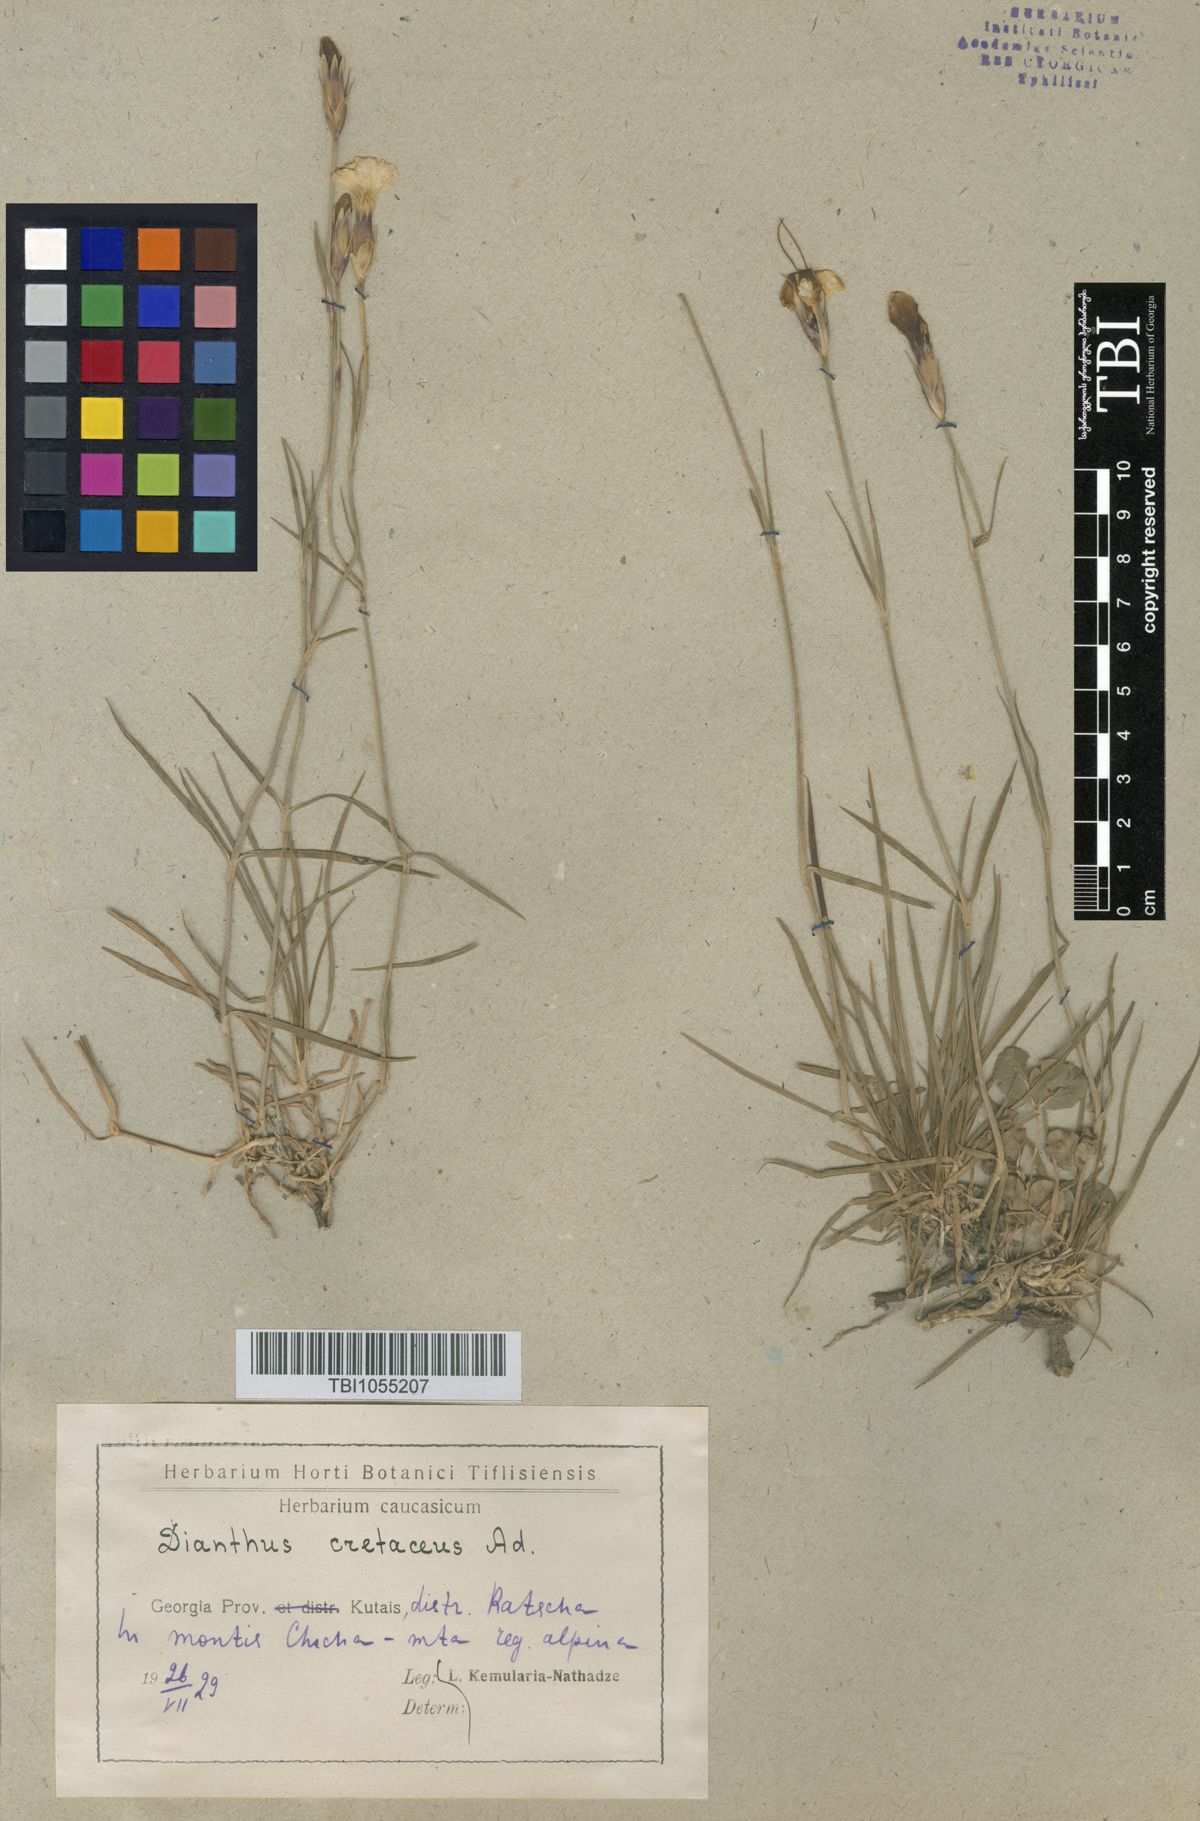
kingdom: Plantae
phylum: Tracheophyta
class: Magnoliopsida
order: Caryophyllales
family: Caryophyllaceae
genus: Dianthus
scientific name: Dianthus cretaceus
